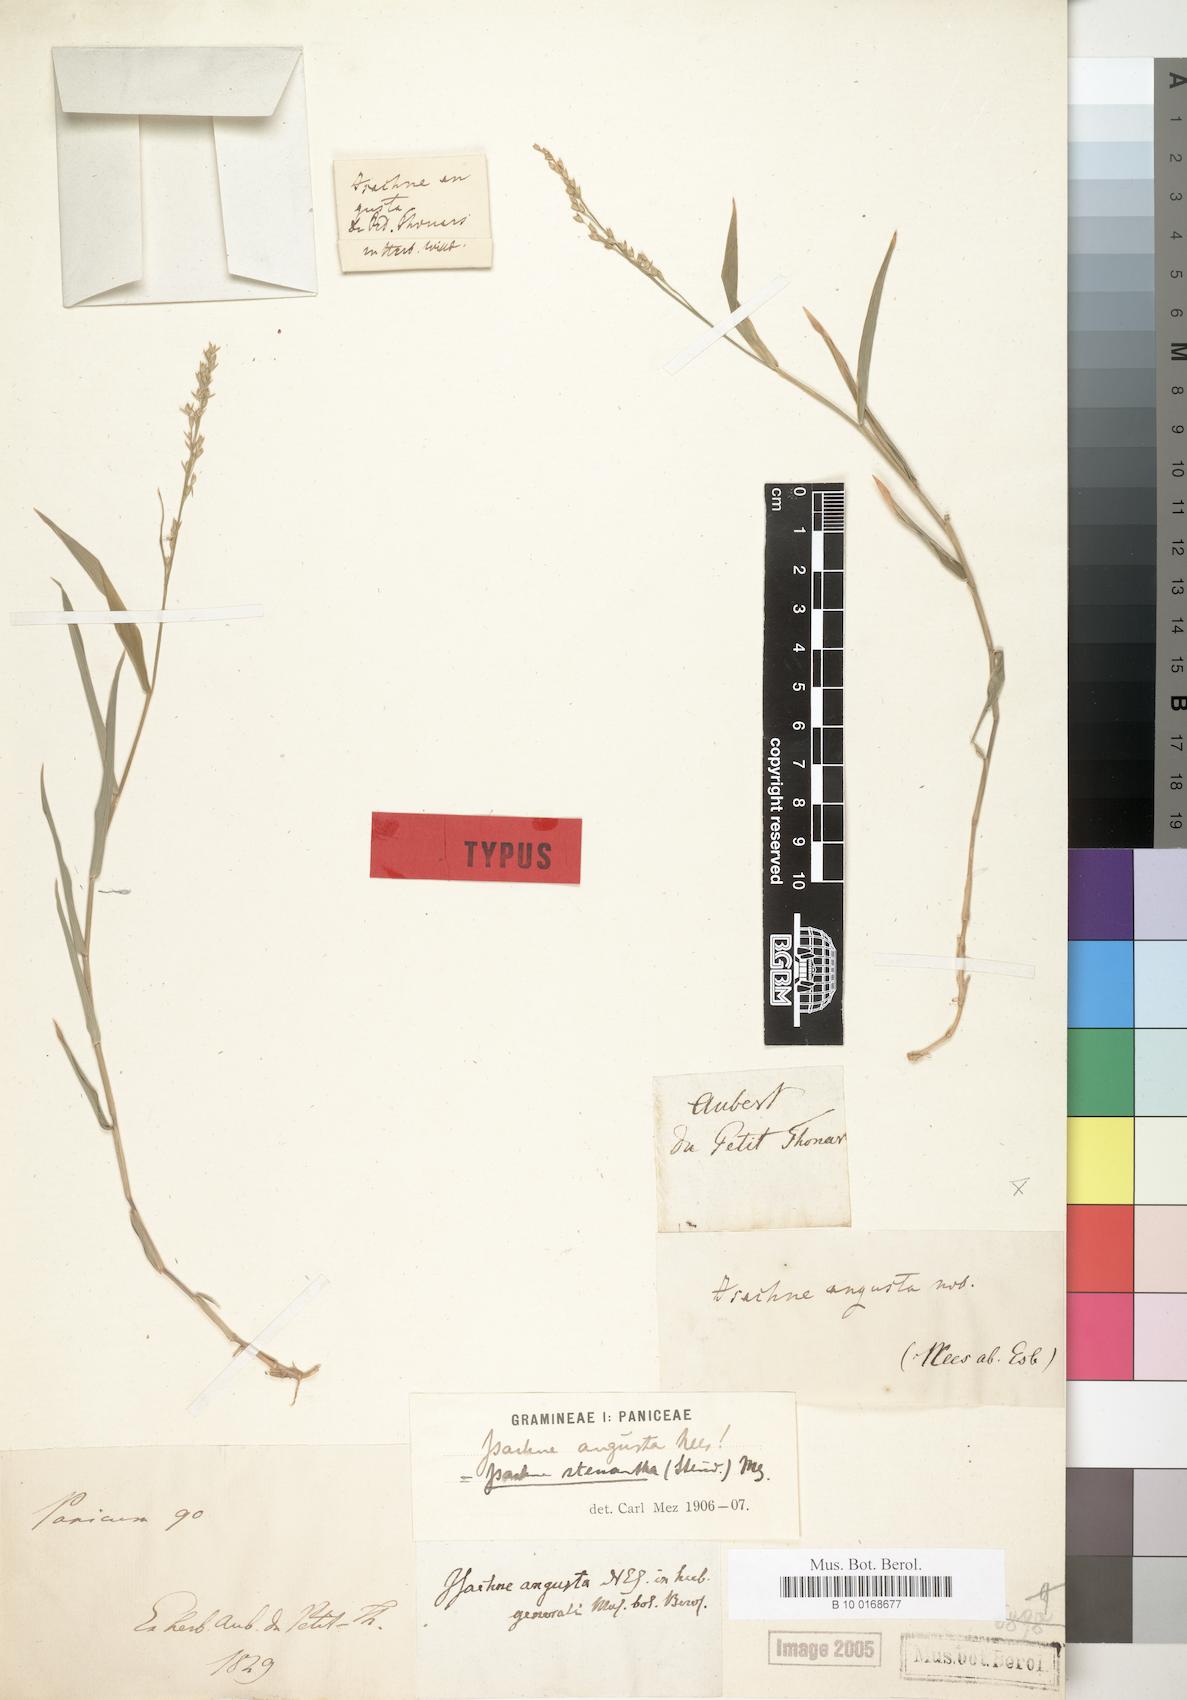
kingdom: Plantae
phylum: Tracheophyta
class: Liliopsida
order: Poales
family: Poaceae
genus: Isachne
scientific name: Isachne stenantha
